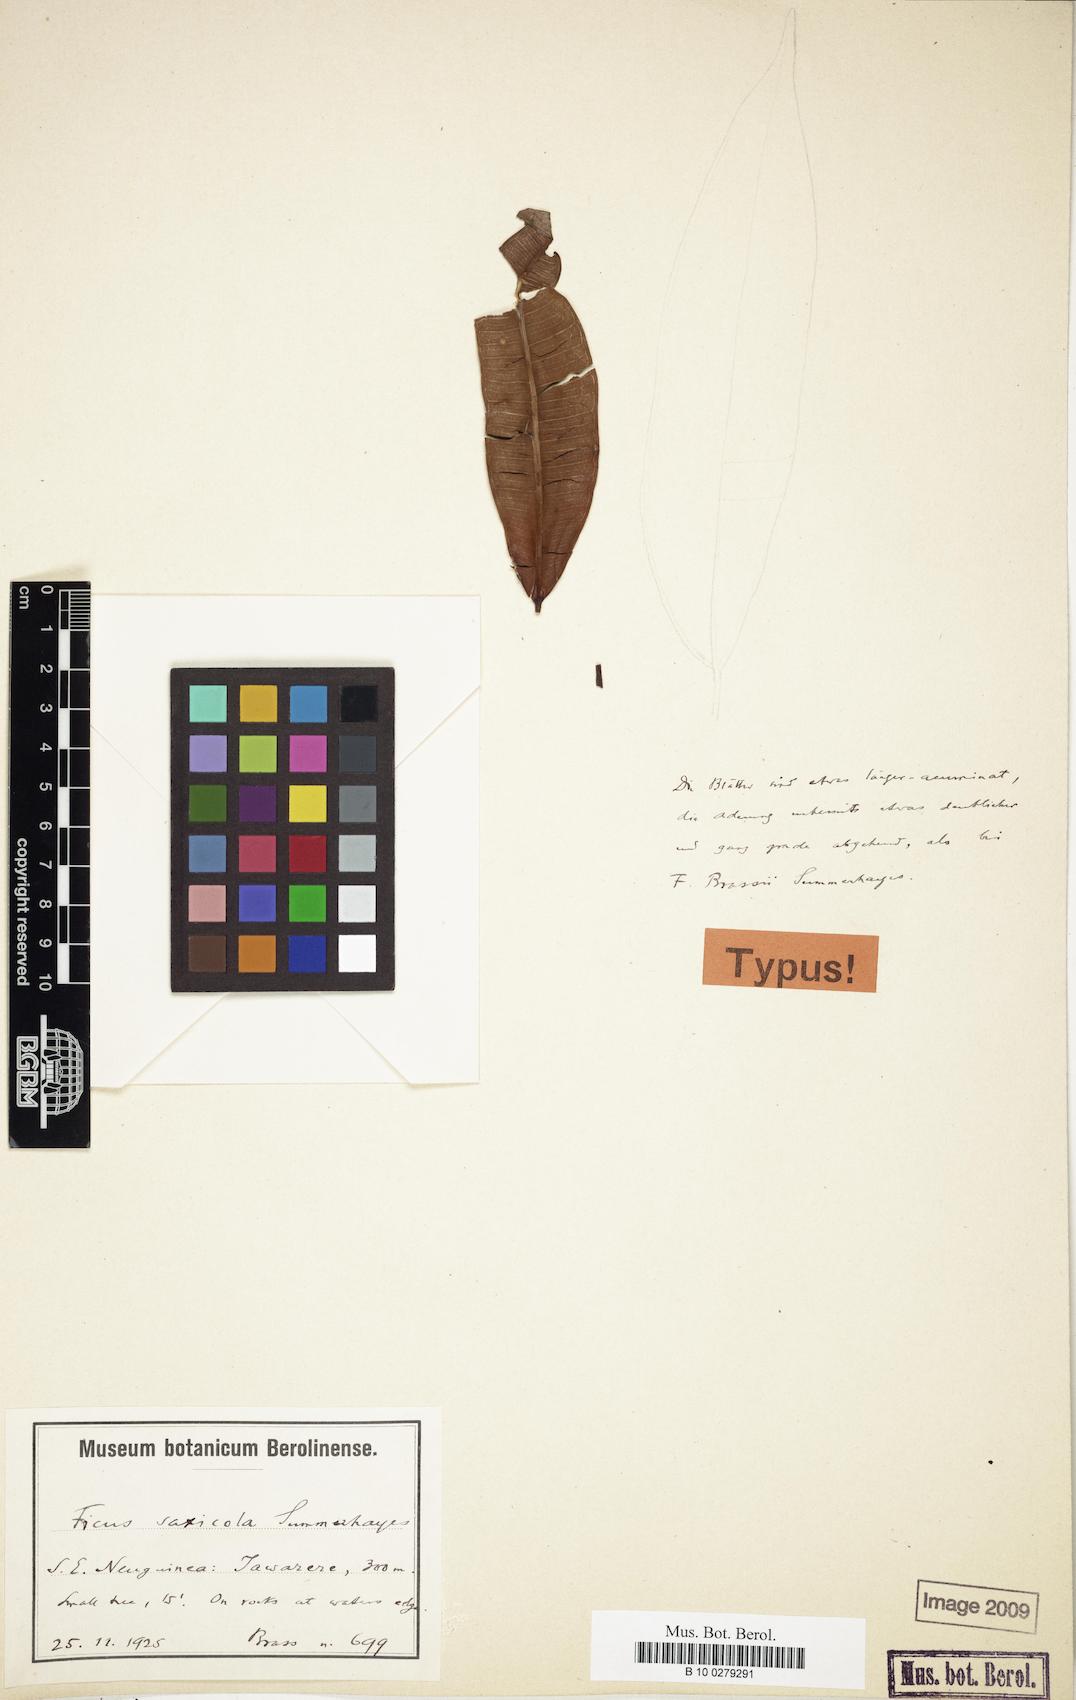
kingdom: Plantae
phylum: Tracheophyta
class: Magnoliopsida
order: Rosales
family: Moraceae
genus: Ficus
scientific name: Ficus subtrinervia
